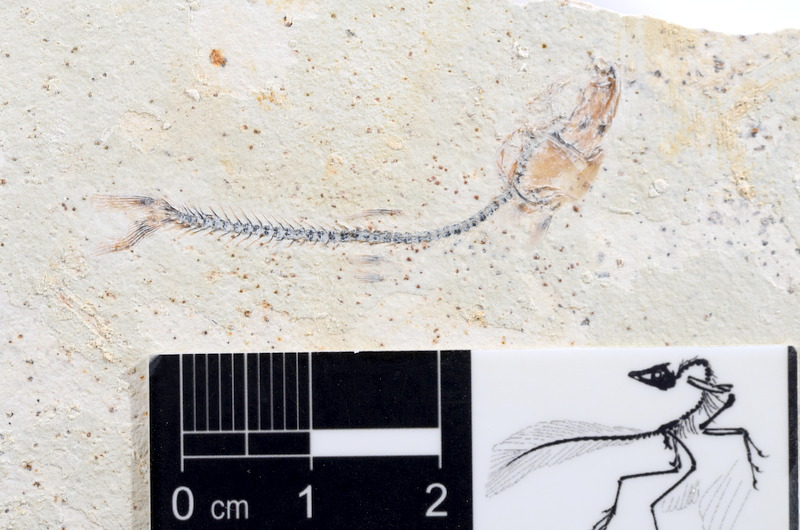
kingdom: Animalia
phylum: Chordata
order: Salmoniformes
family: Orthogonikleithridae
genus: Orthogonikleithrus
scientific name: Orthogonikleithrus hoelli
